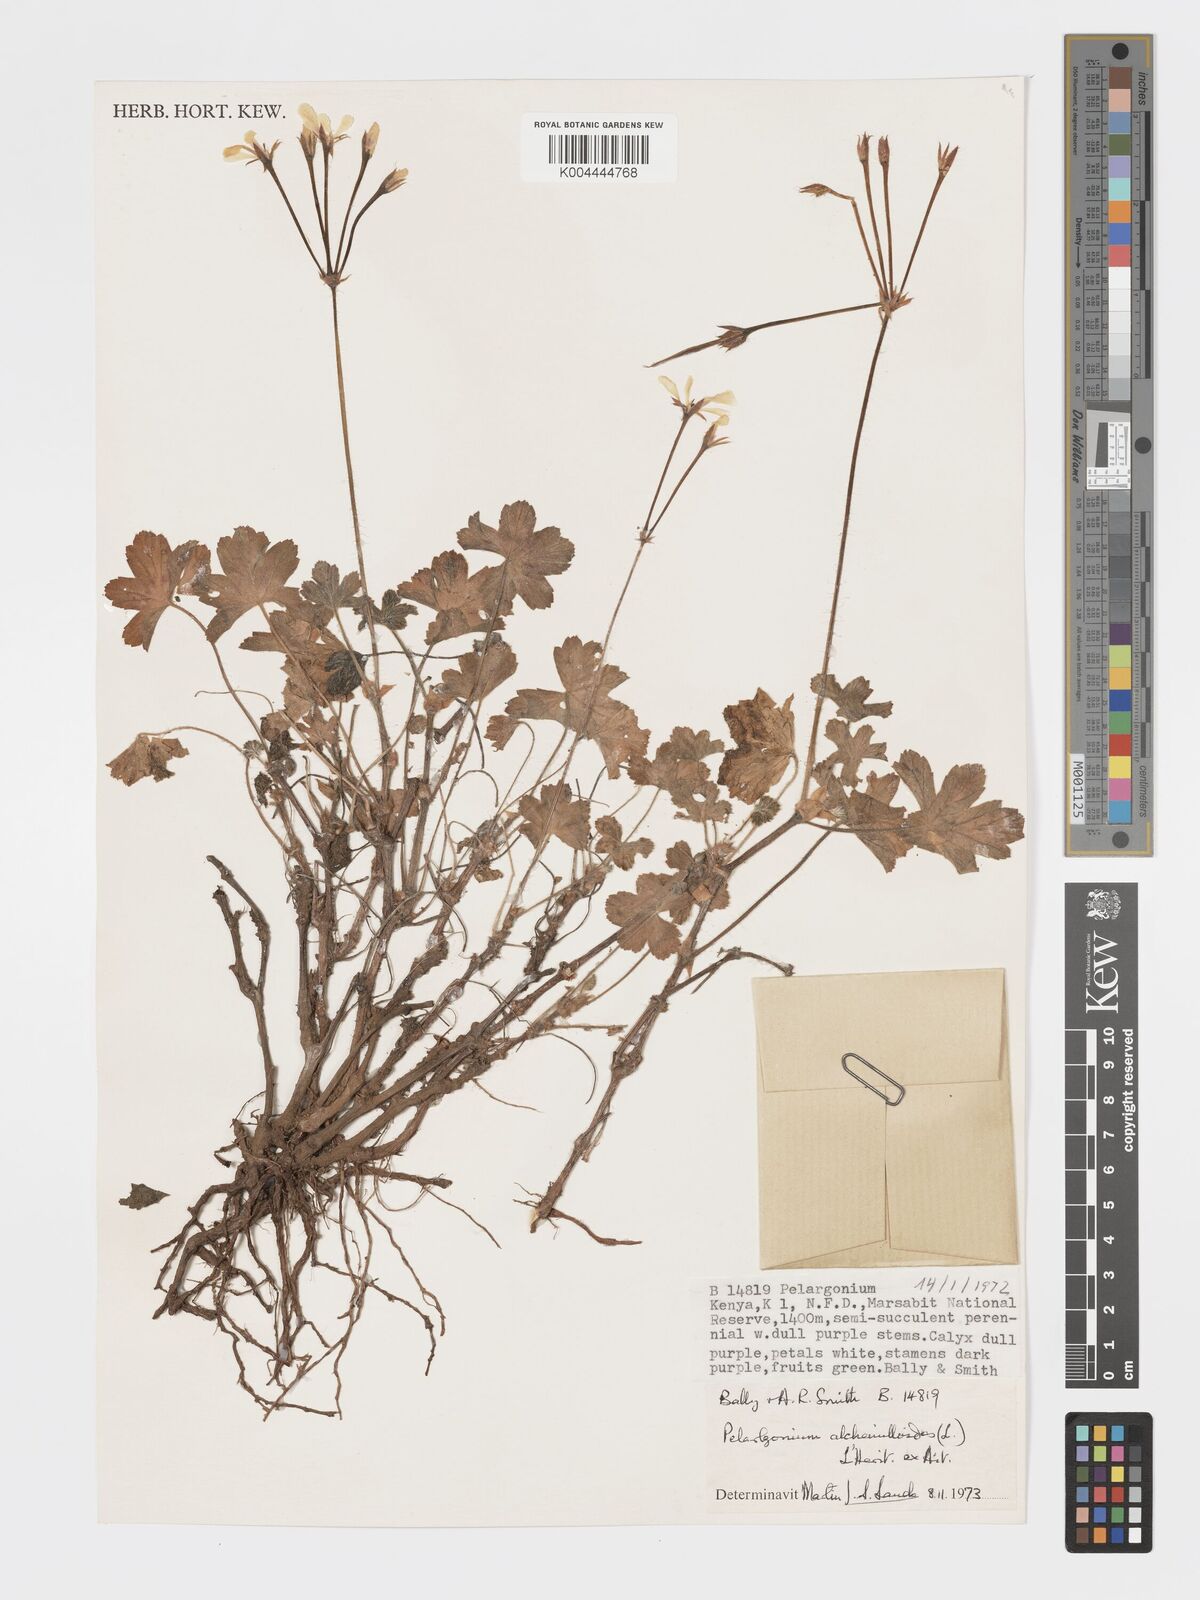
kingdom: Plantae
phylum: Tracheophyta
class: Magnoliopsida
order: Geraniales
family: Geraniaceae
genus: Pelargonium
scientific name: Pelargonium alchemilloides
